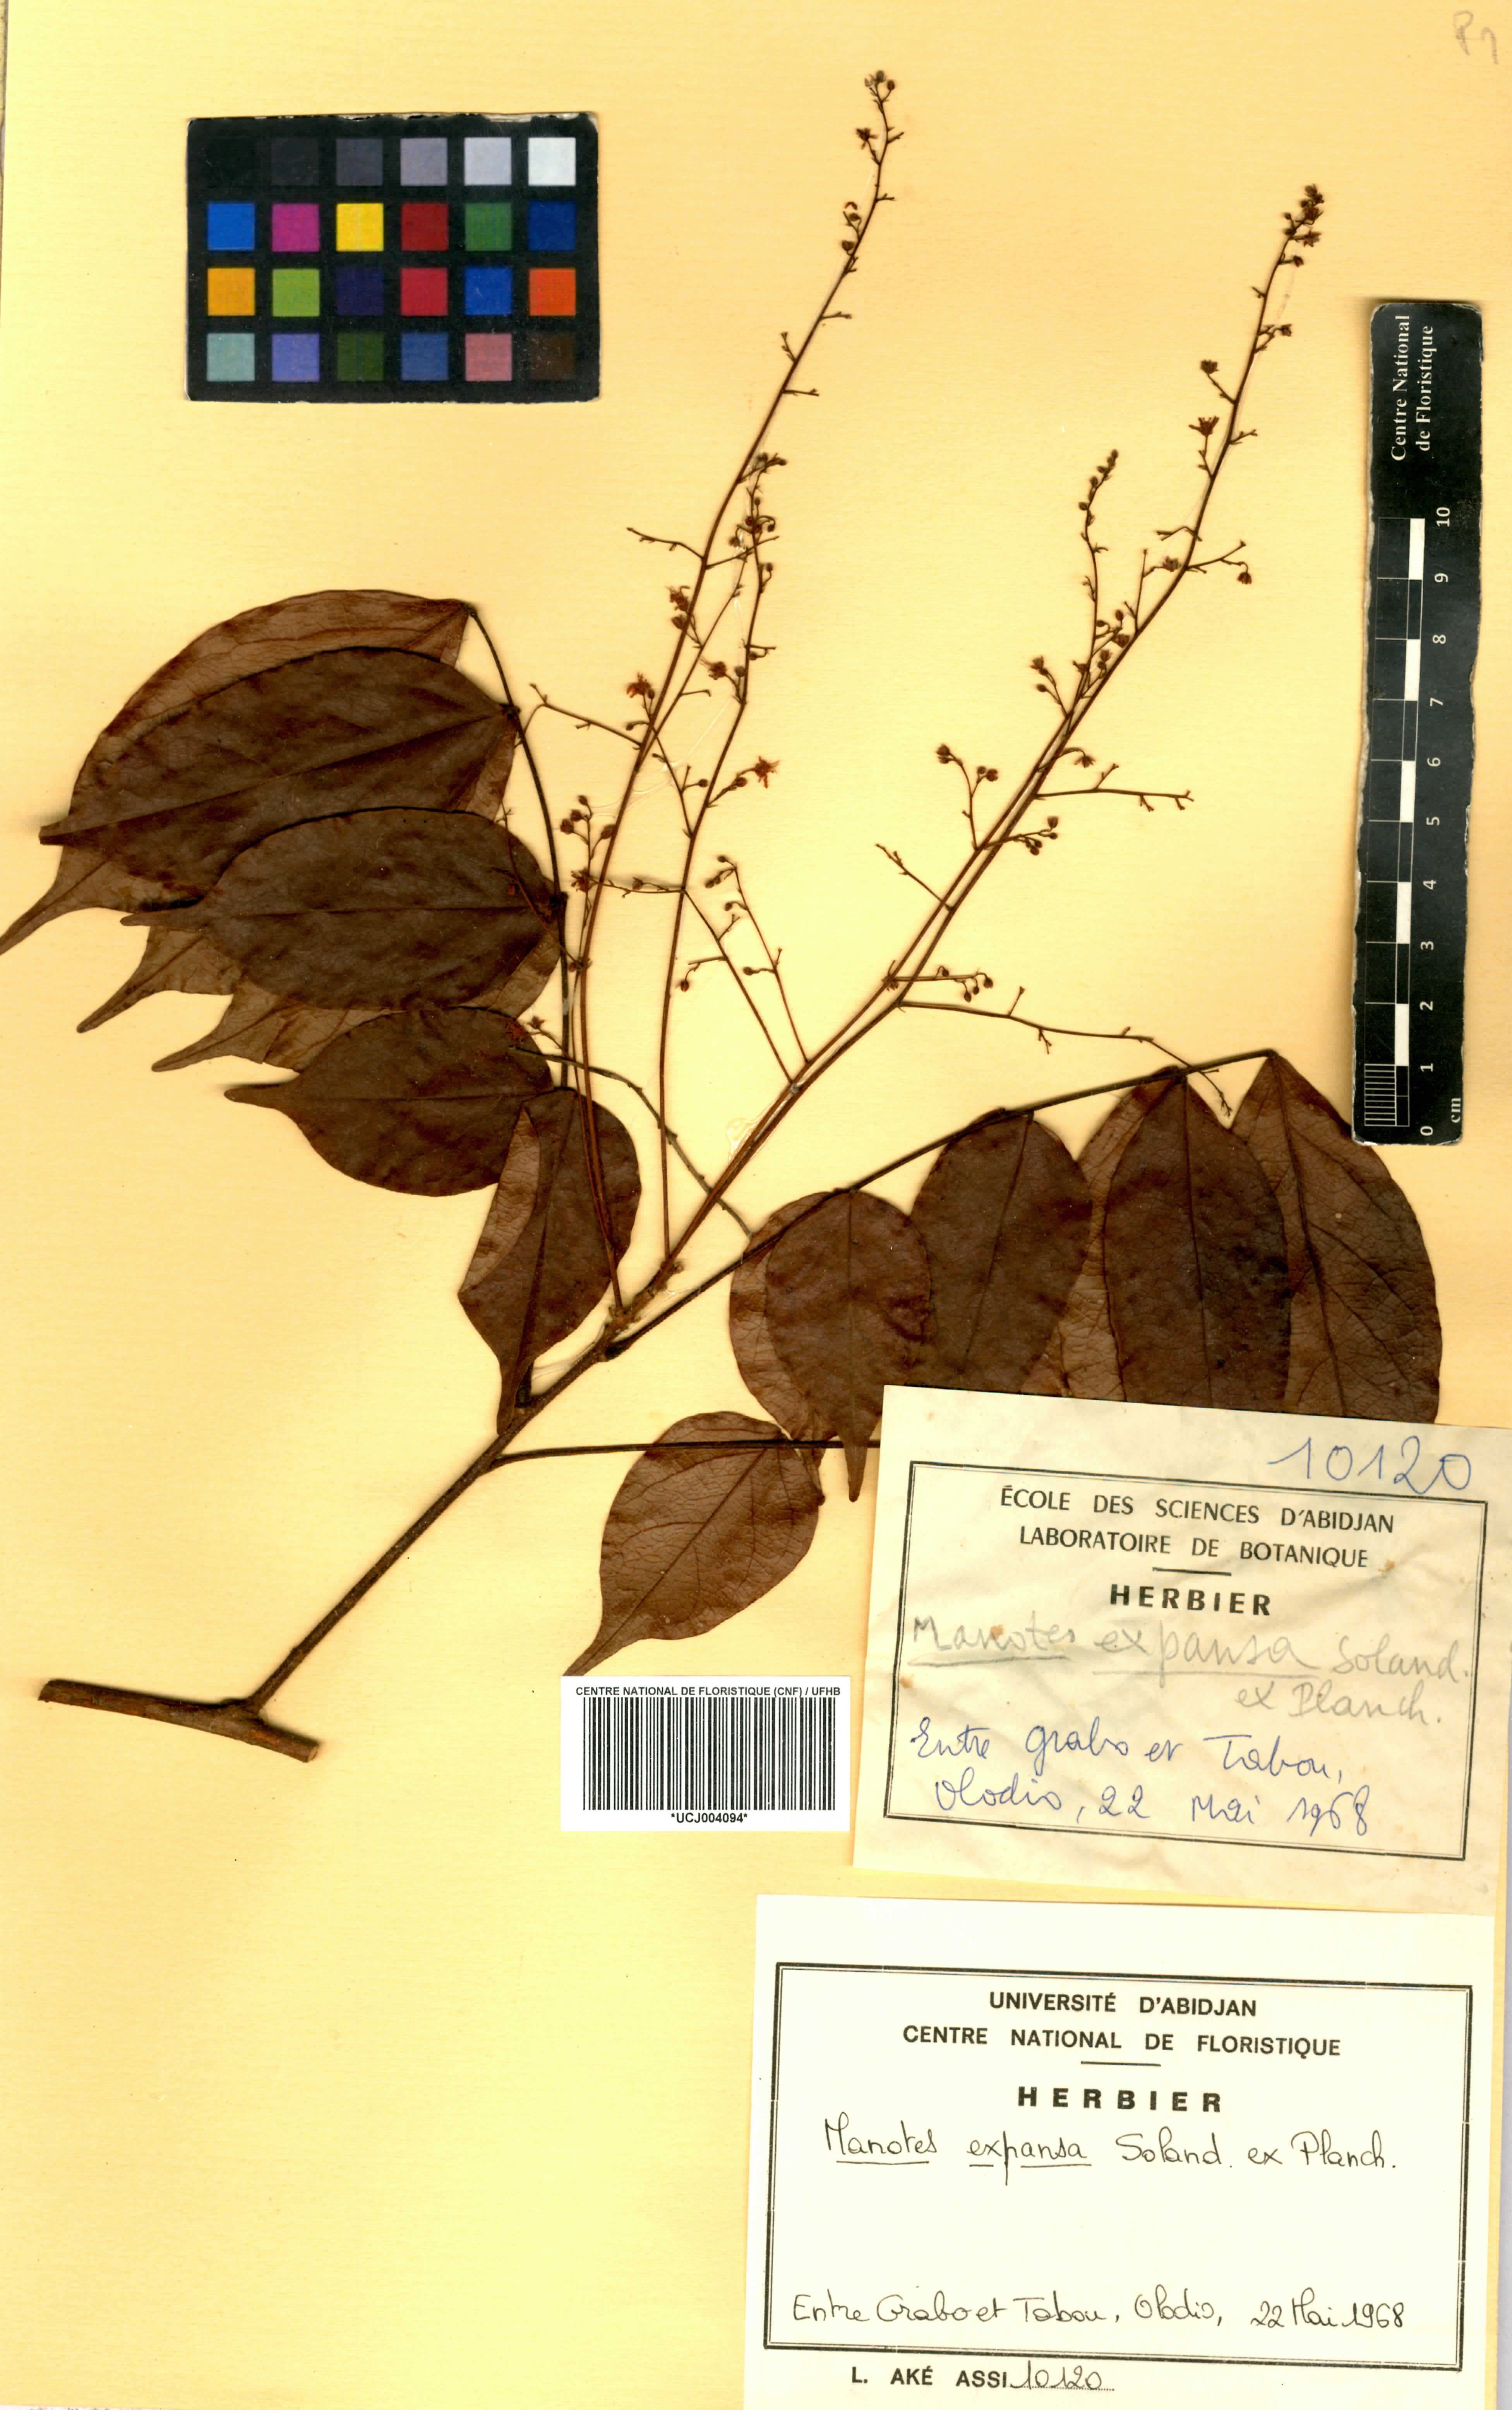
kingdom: Plantae
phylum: Tracheophyta
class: Magnoliopsida
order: Oxalidales
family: Connaraceae
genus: Manotes
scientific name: Manotes expansa
